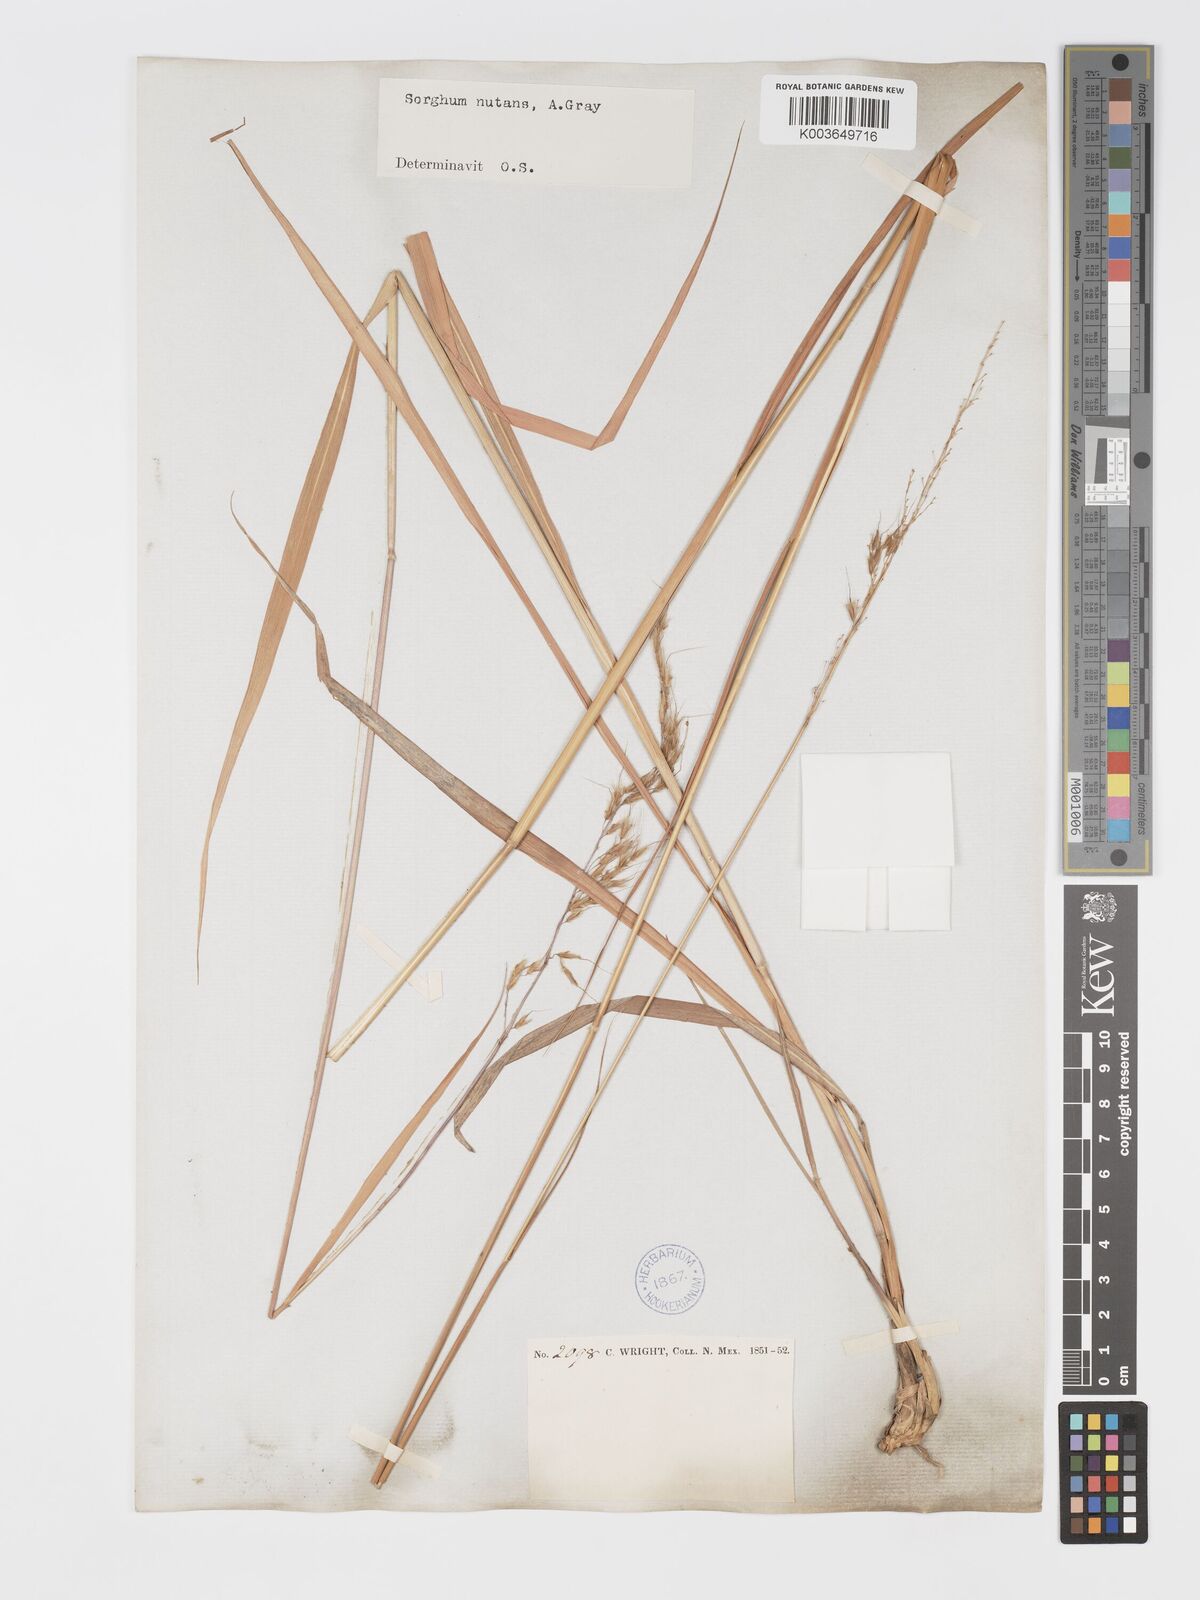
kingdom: Plantae
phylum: Tracheophyta
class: Liliopsida
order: Poales
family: Poaceae
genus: Sorghastrum
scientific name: Sorghastrum nutans
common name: Indian grass
